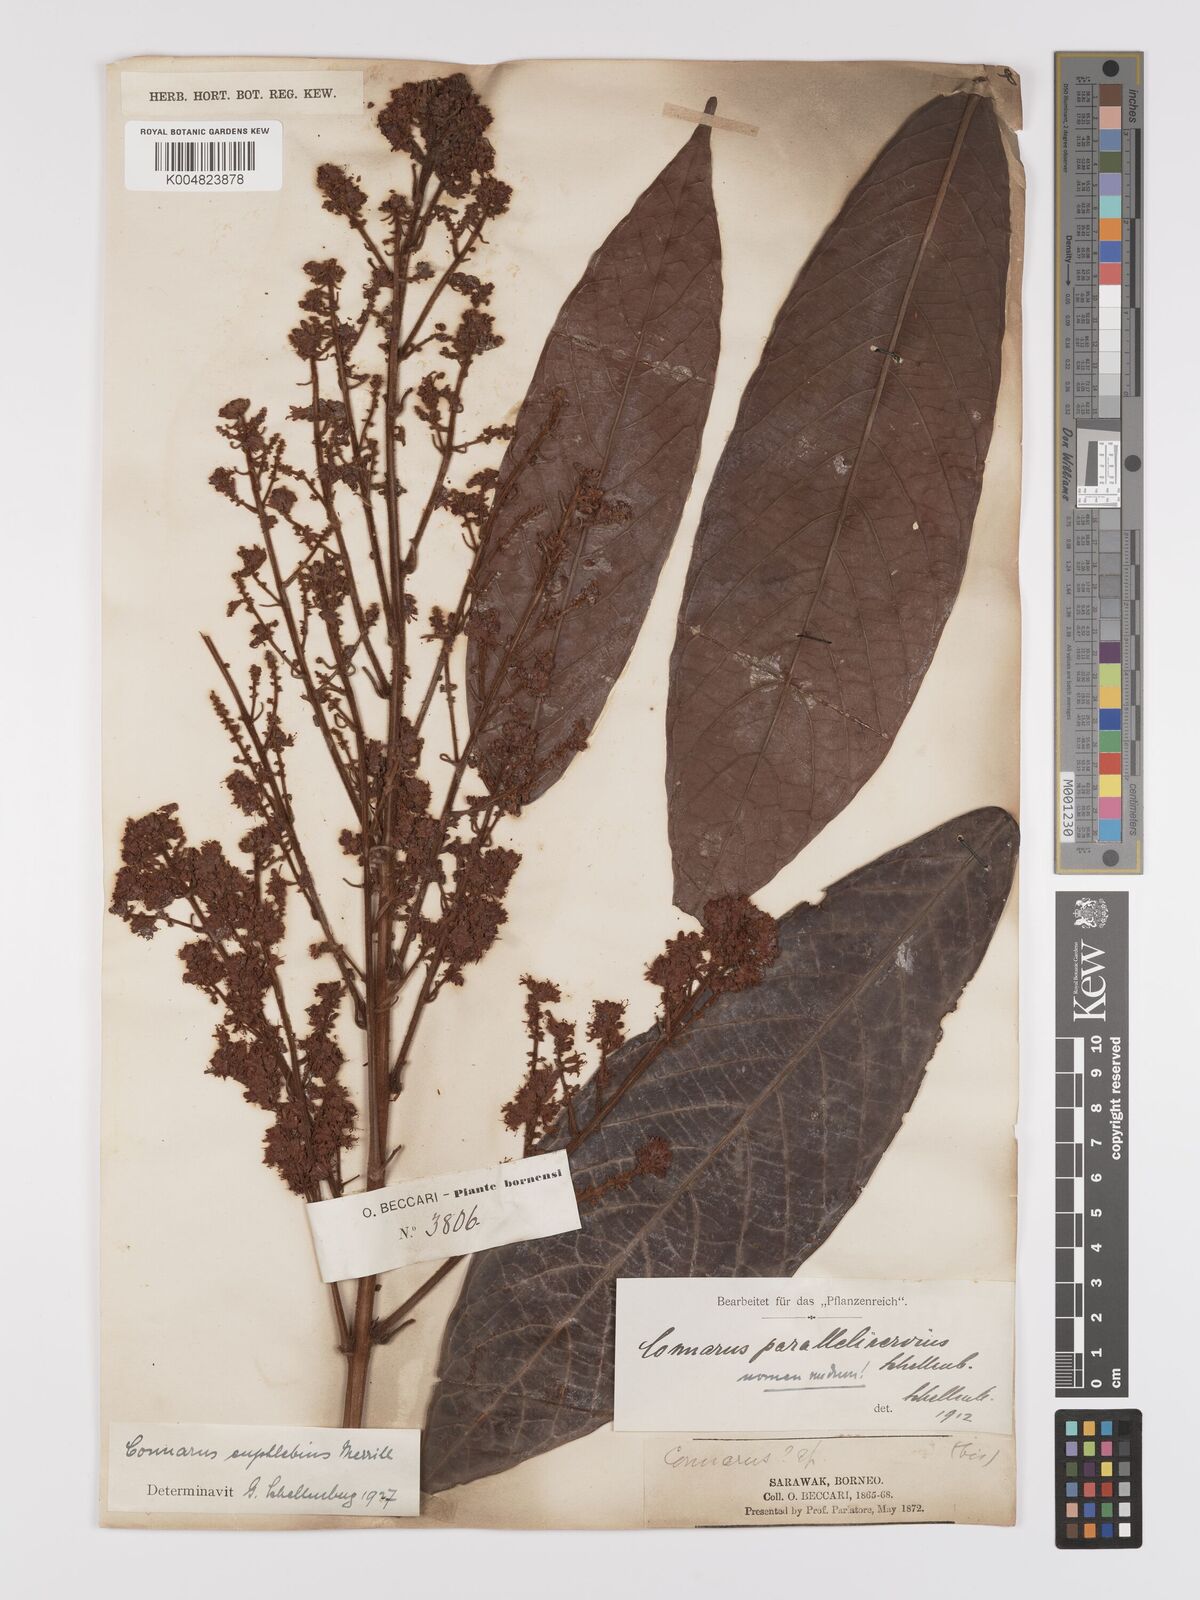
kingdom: Plantae
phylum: Tracheophyta
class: Magnoliopsida
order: Oxalidales
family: Connaraceae
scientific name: Connaraceae
